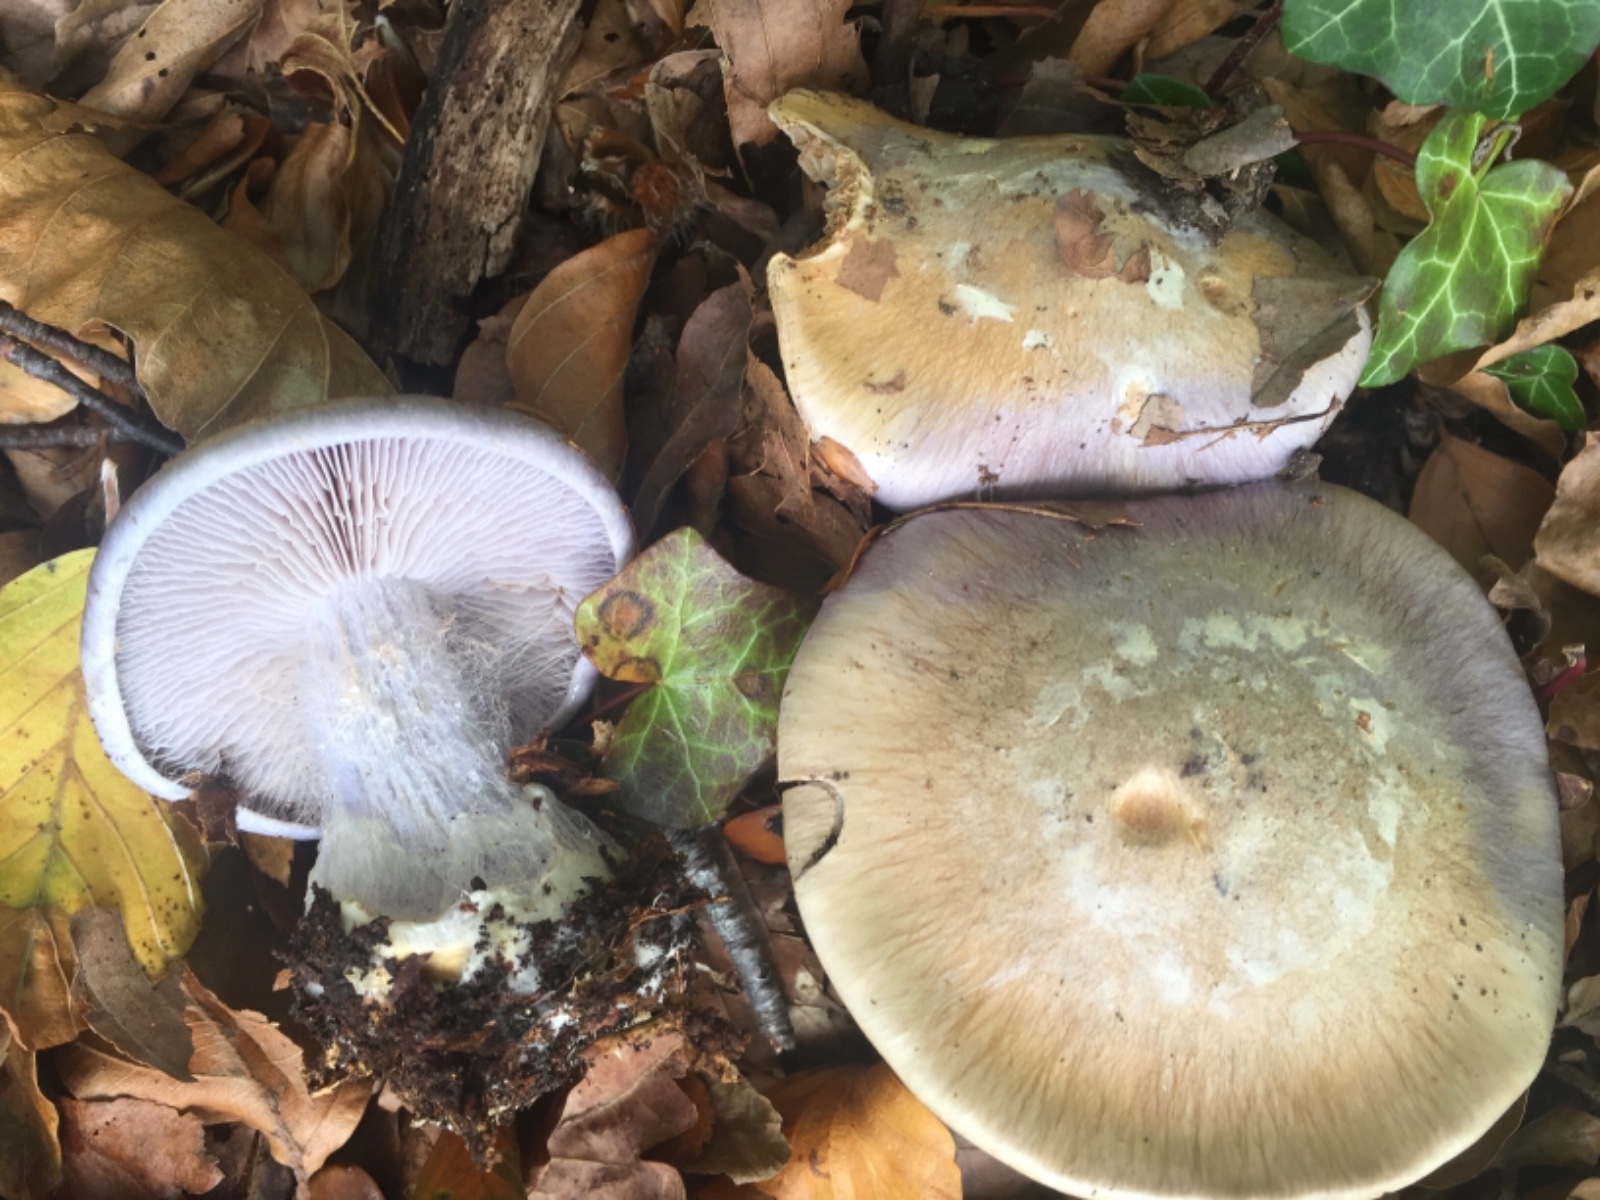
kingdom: Fungi
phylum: Basidiomycota
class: Agaricomycetes
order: Agaricales
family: Cortinariaceae
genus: Cortinarius
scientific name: Cortinarius caerulescens
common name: blåkødet slørhat
